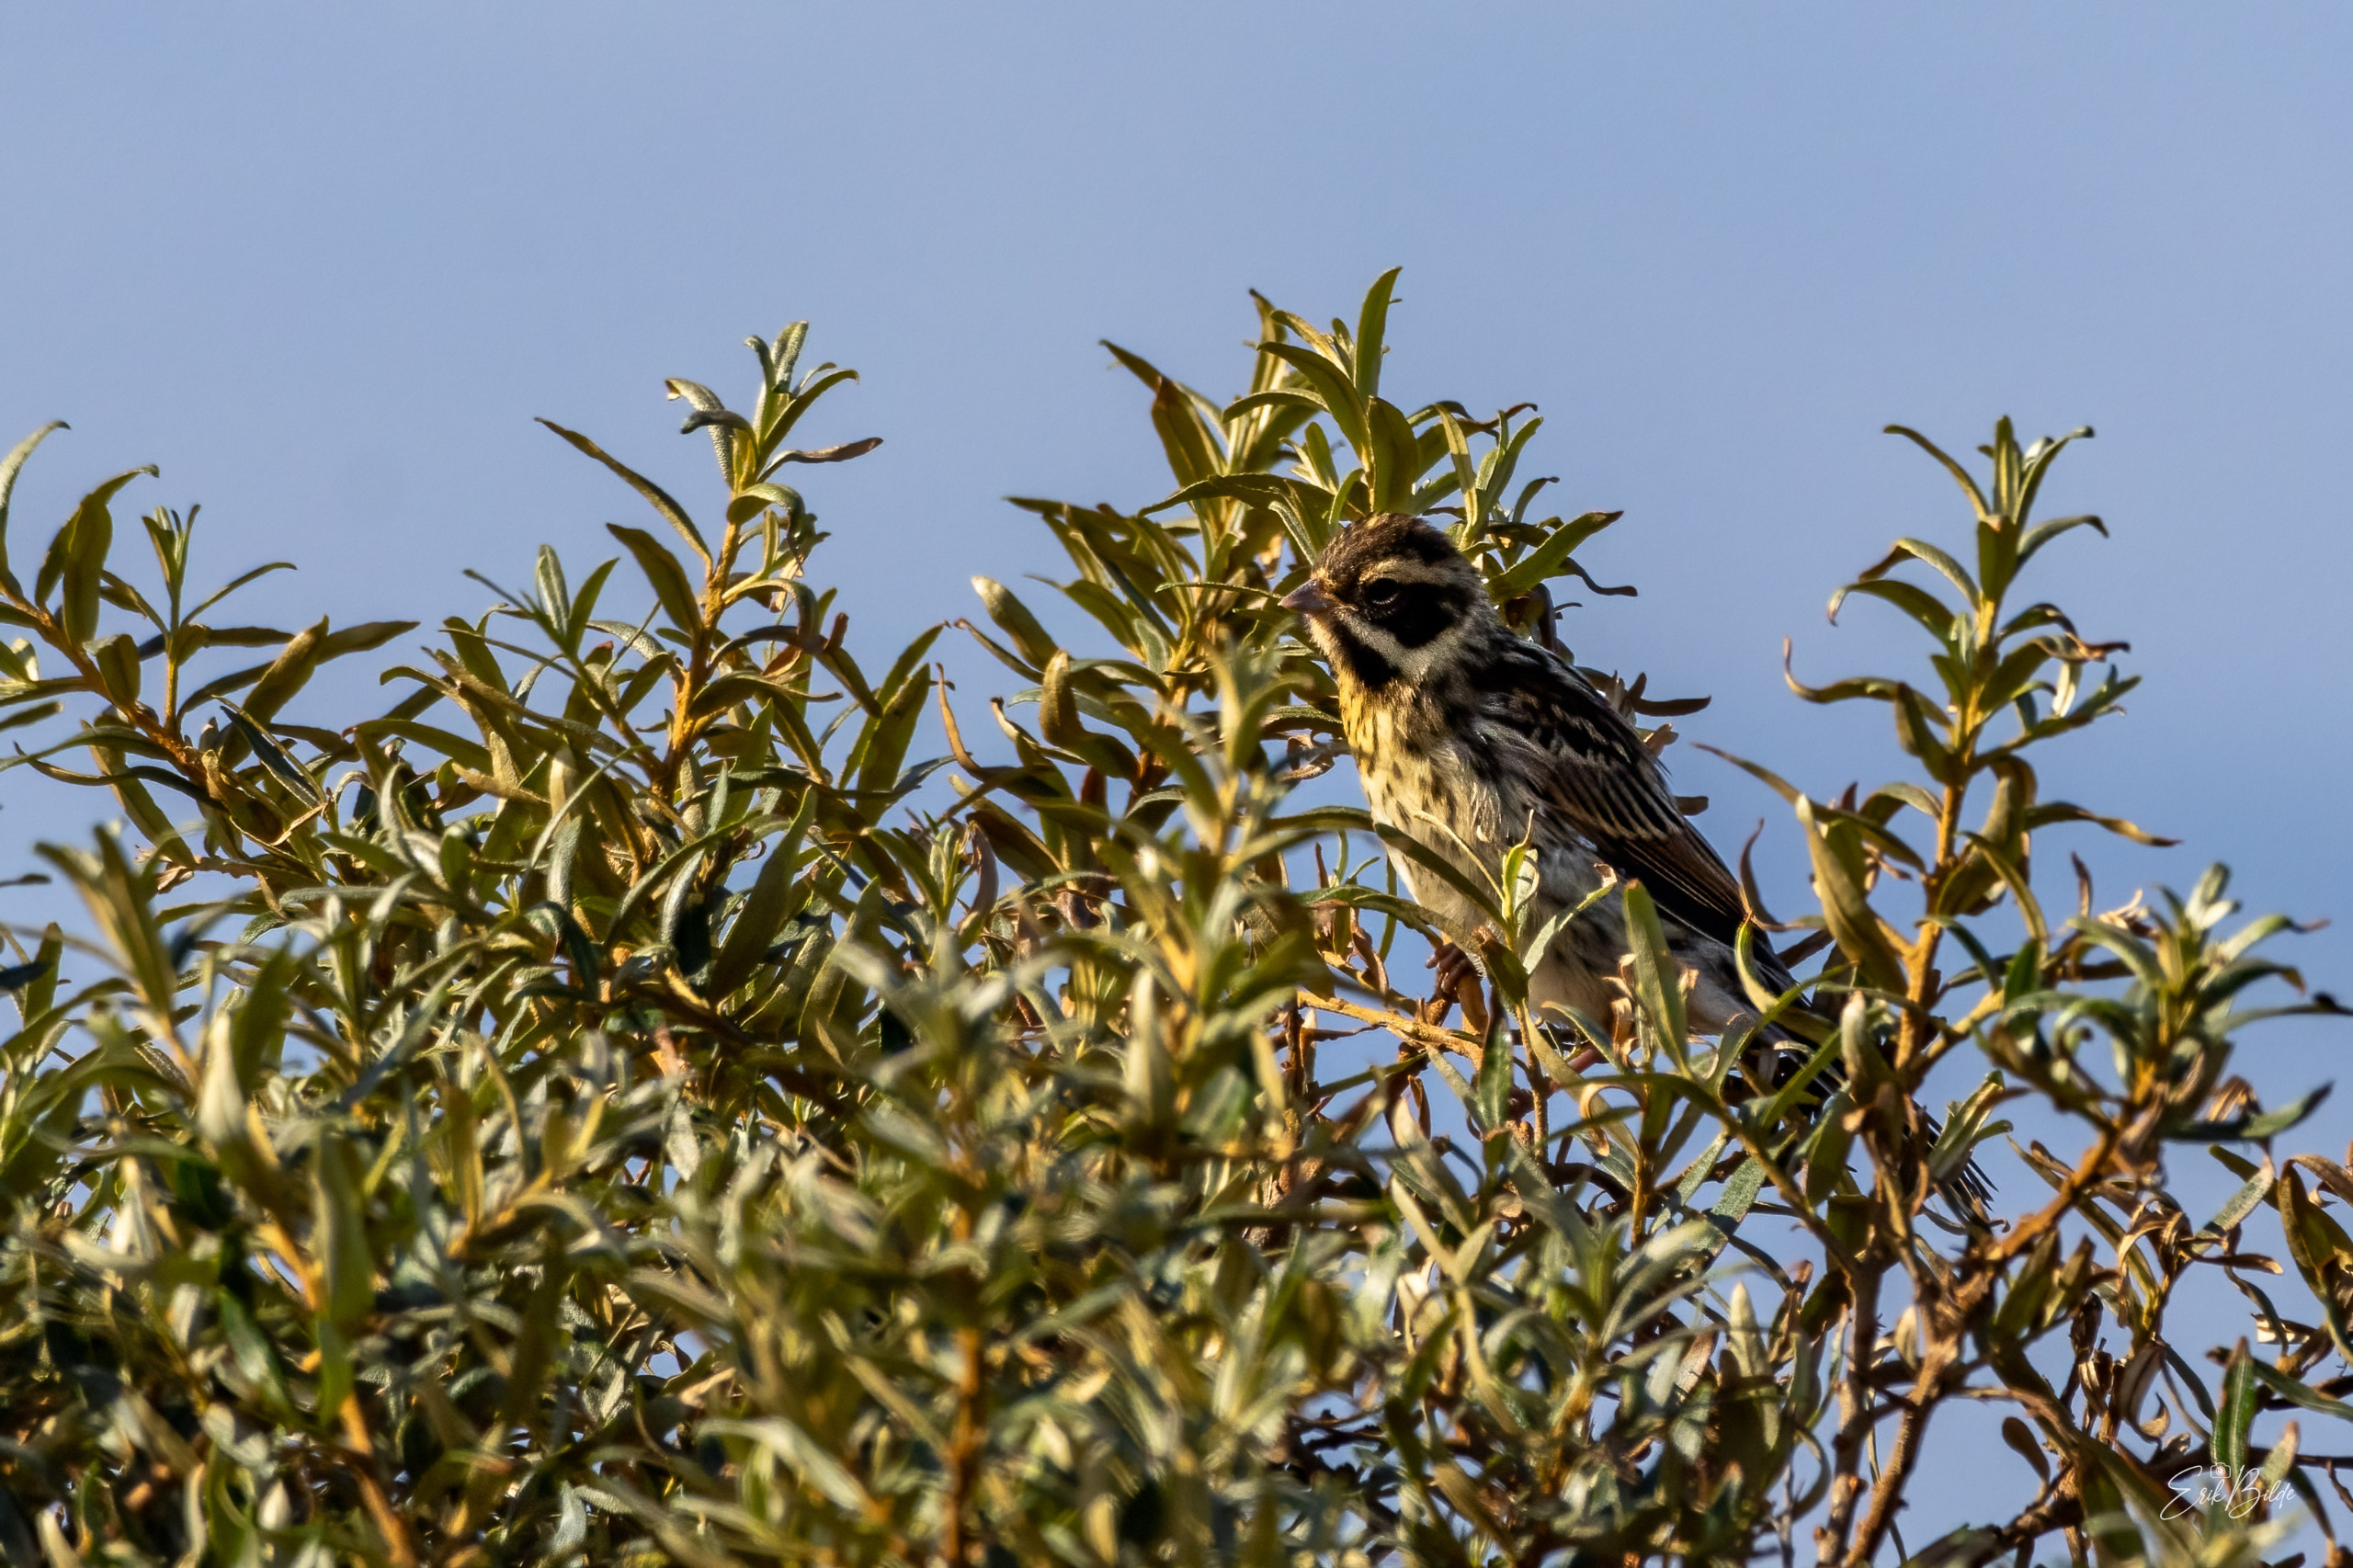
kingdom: Animalia
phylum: Chordata
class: Aves
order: Passeriformes
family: Emberizidae
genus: Emberiza
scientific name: Emberiza schoeniclus
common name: Rørspurv
